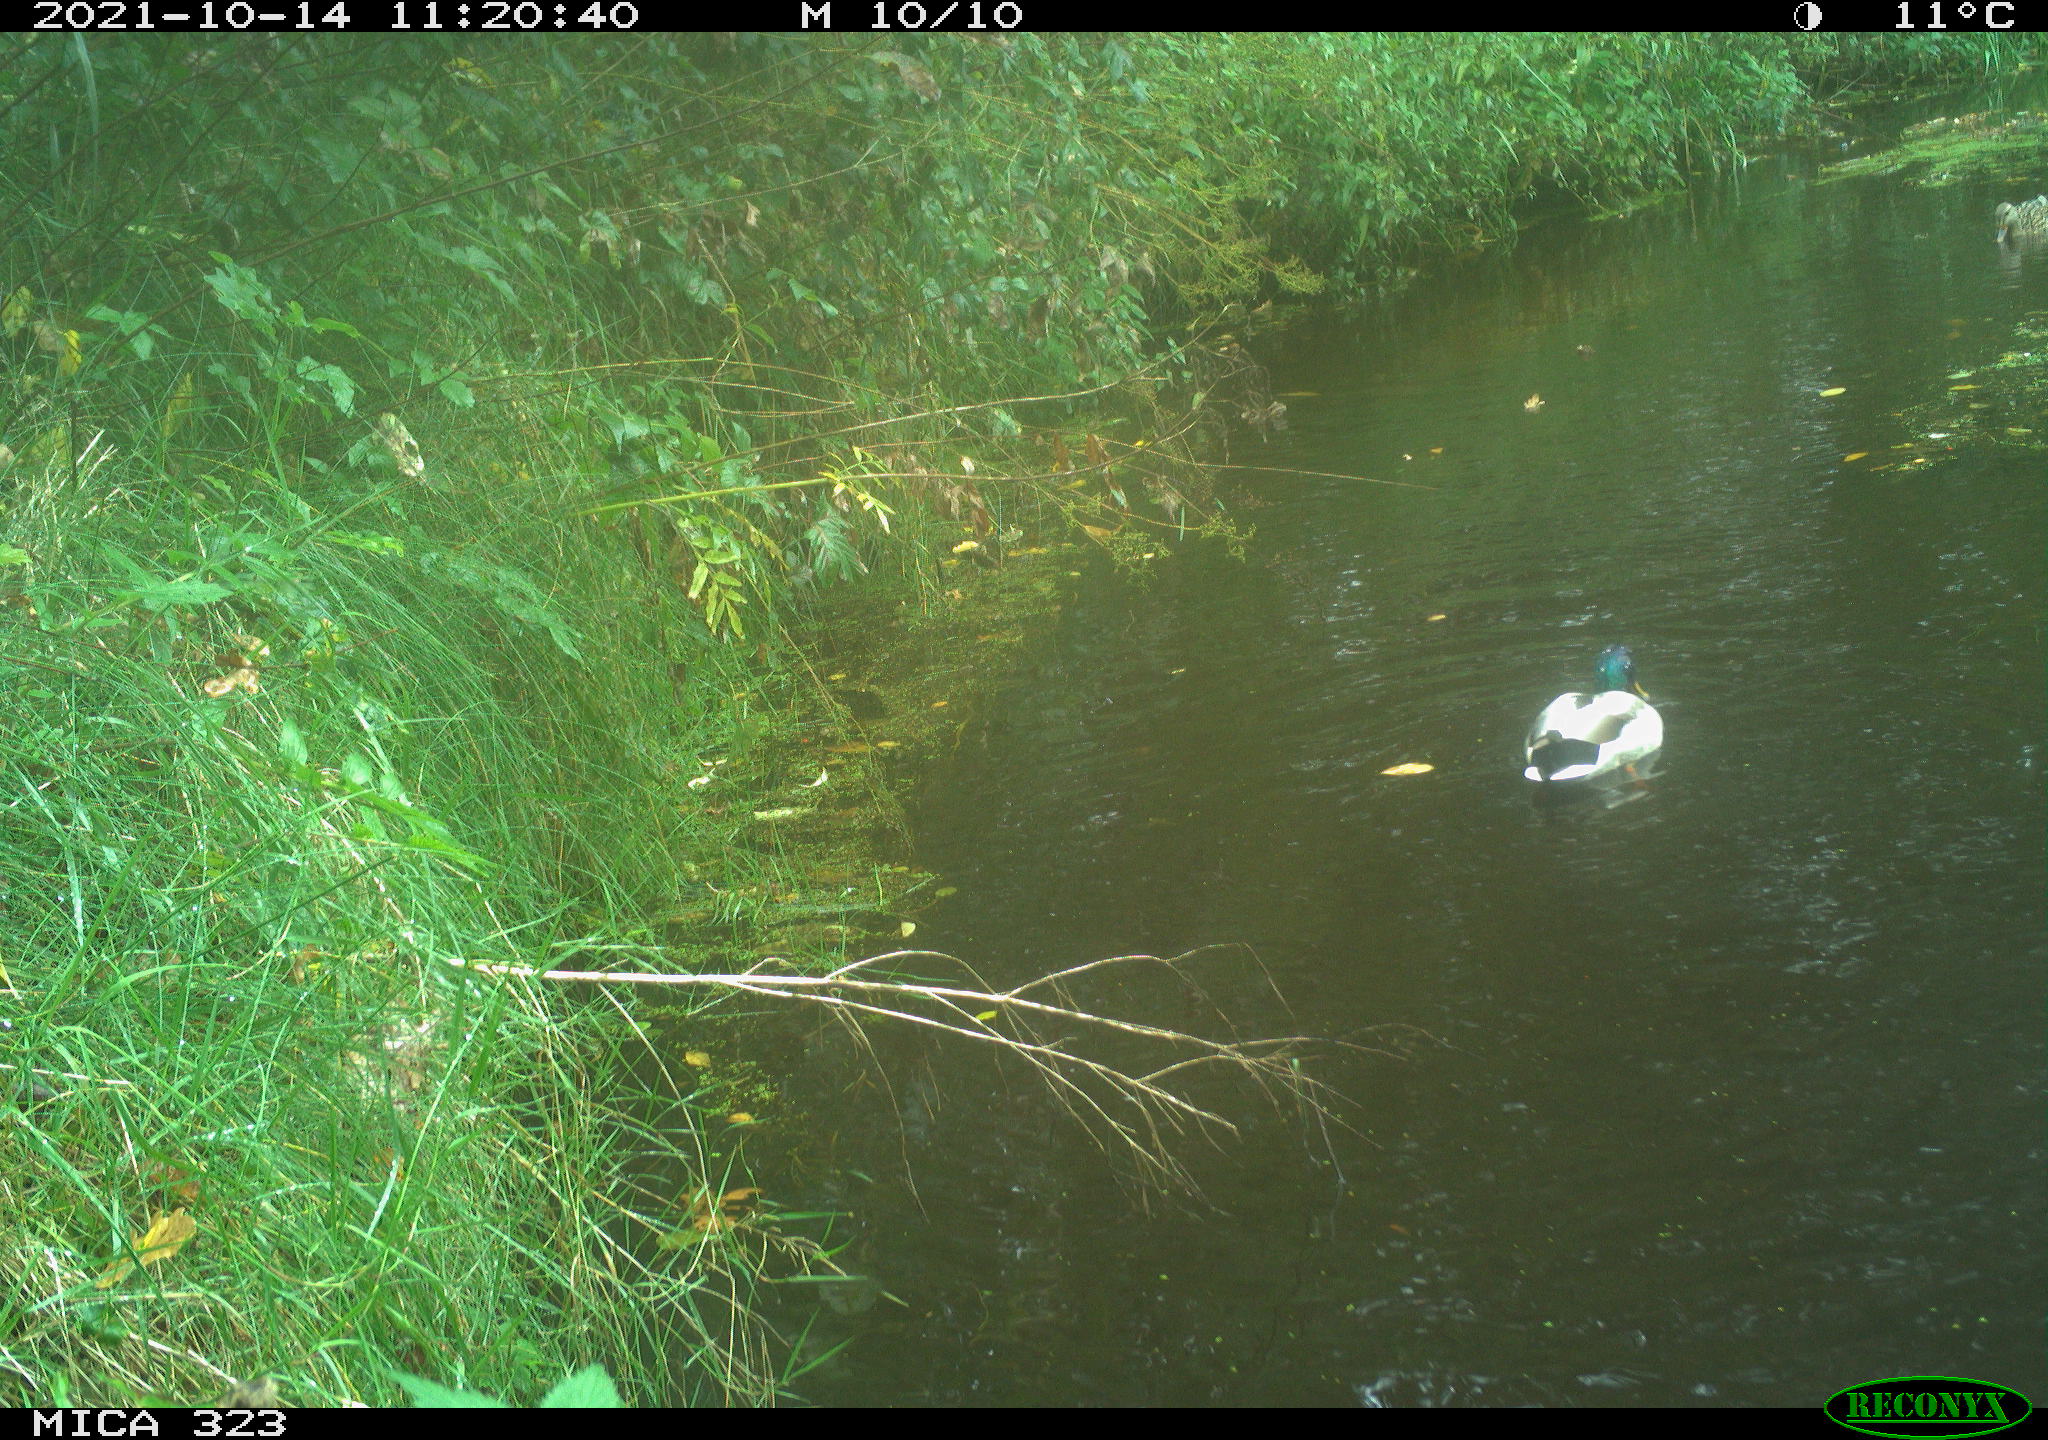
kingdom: Animalia
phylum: Chordata
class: Aves
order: Anseriformes
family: Anatidae
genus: Anas
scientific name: Anas platyrhynchos
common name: Mallard
